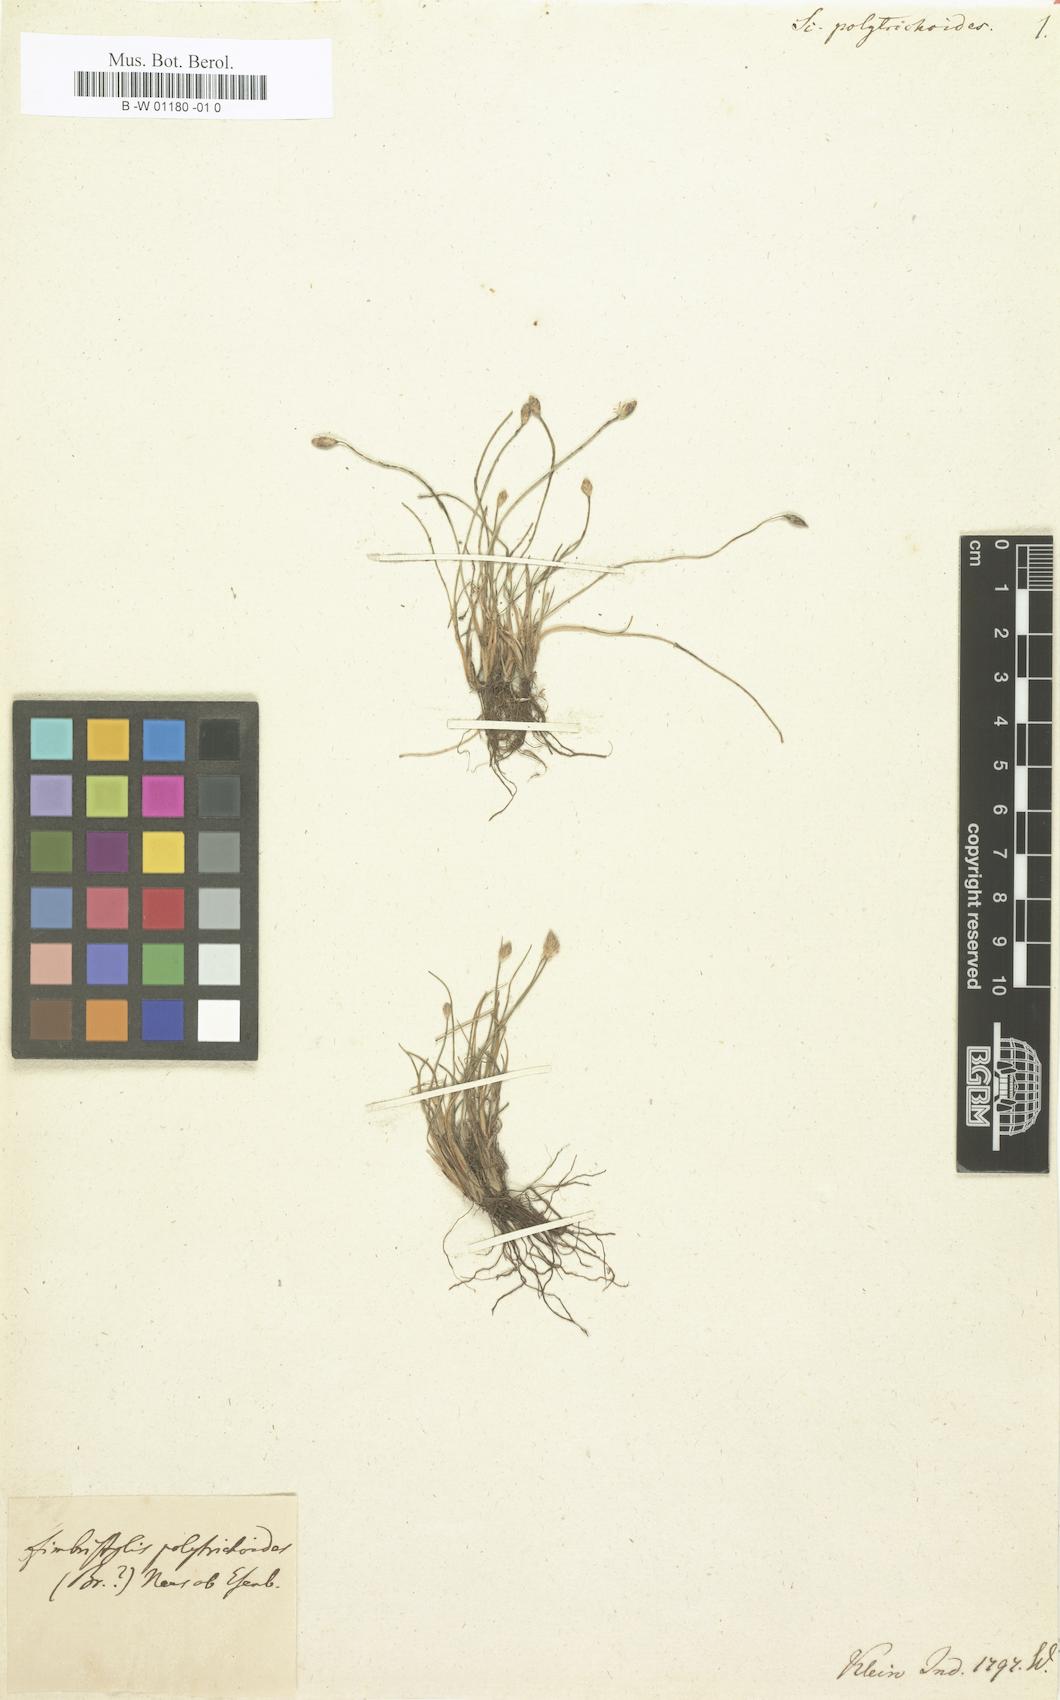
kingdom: Plantae
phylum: Tracheophyta
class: Liliopsida
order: Poales
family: Cyperaceae
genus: Fimbristylis
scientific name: Fimbristylis polytrichoides
